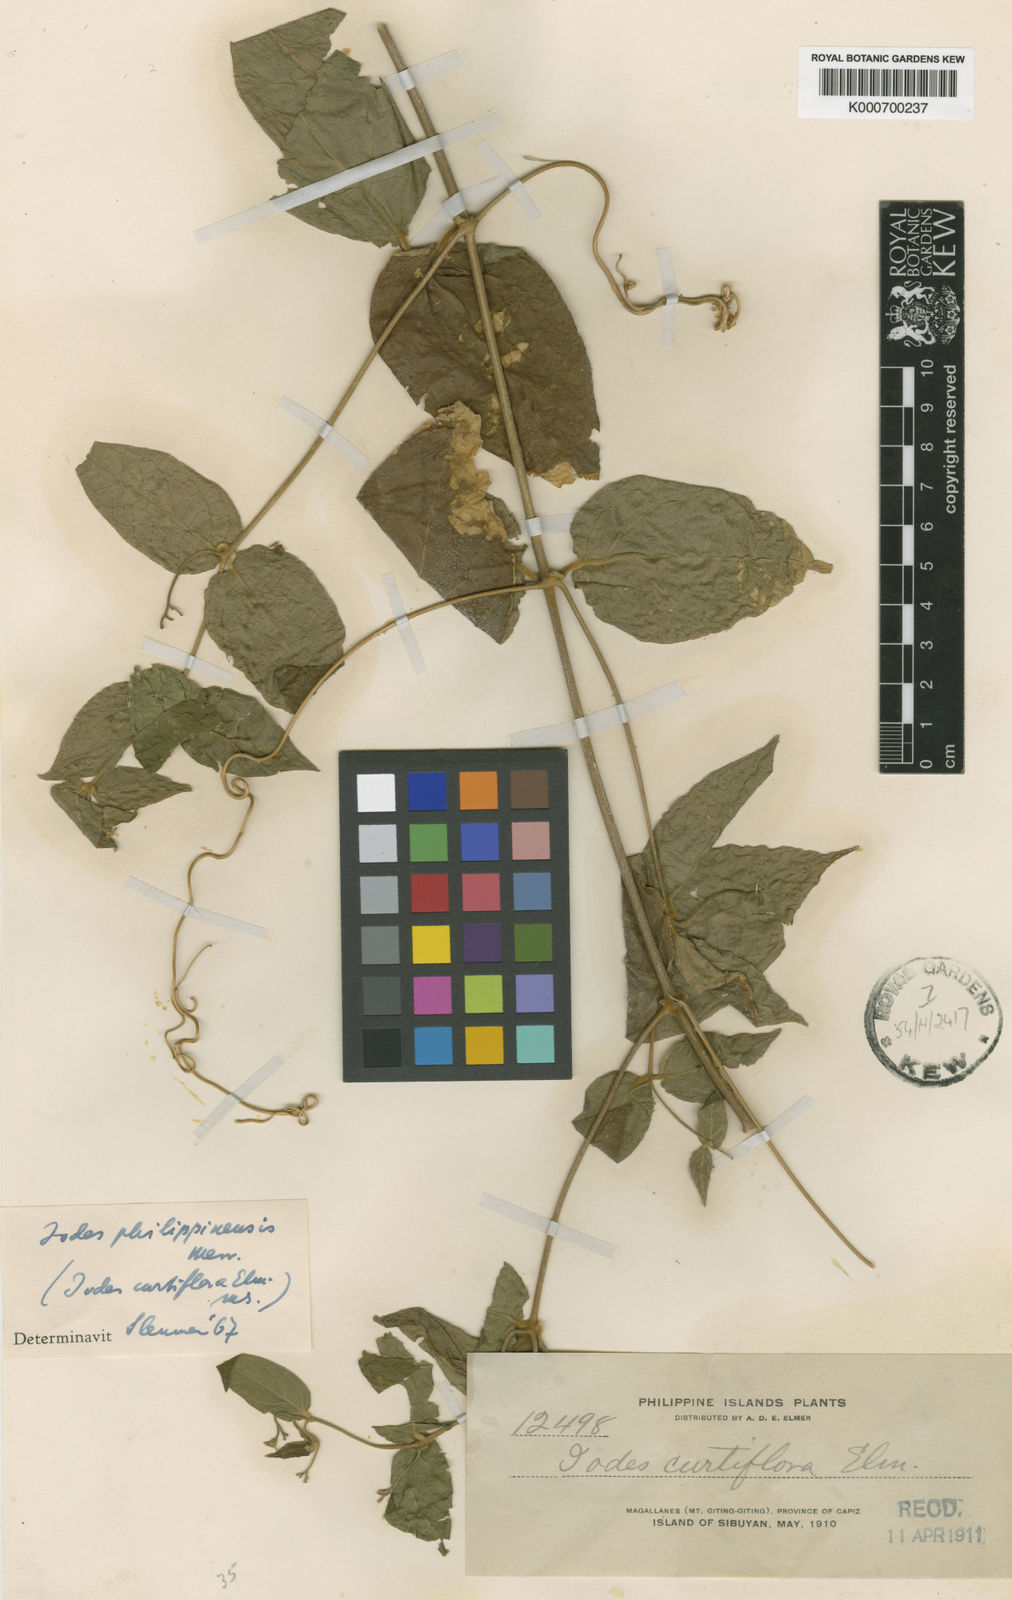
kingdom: Plantae
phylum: Tracheophyta
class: Magnoliopsida
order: Icacinales
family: Icacinaceae
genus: Iodes
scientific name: Iodes philippinensis
